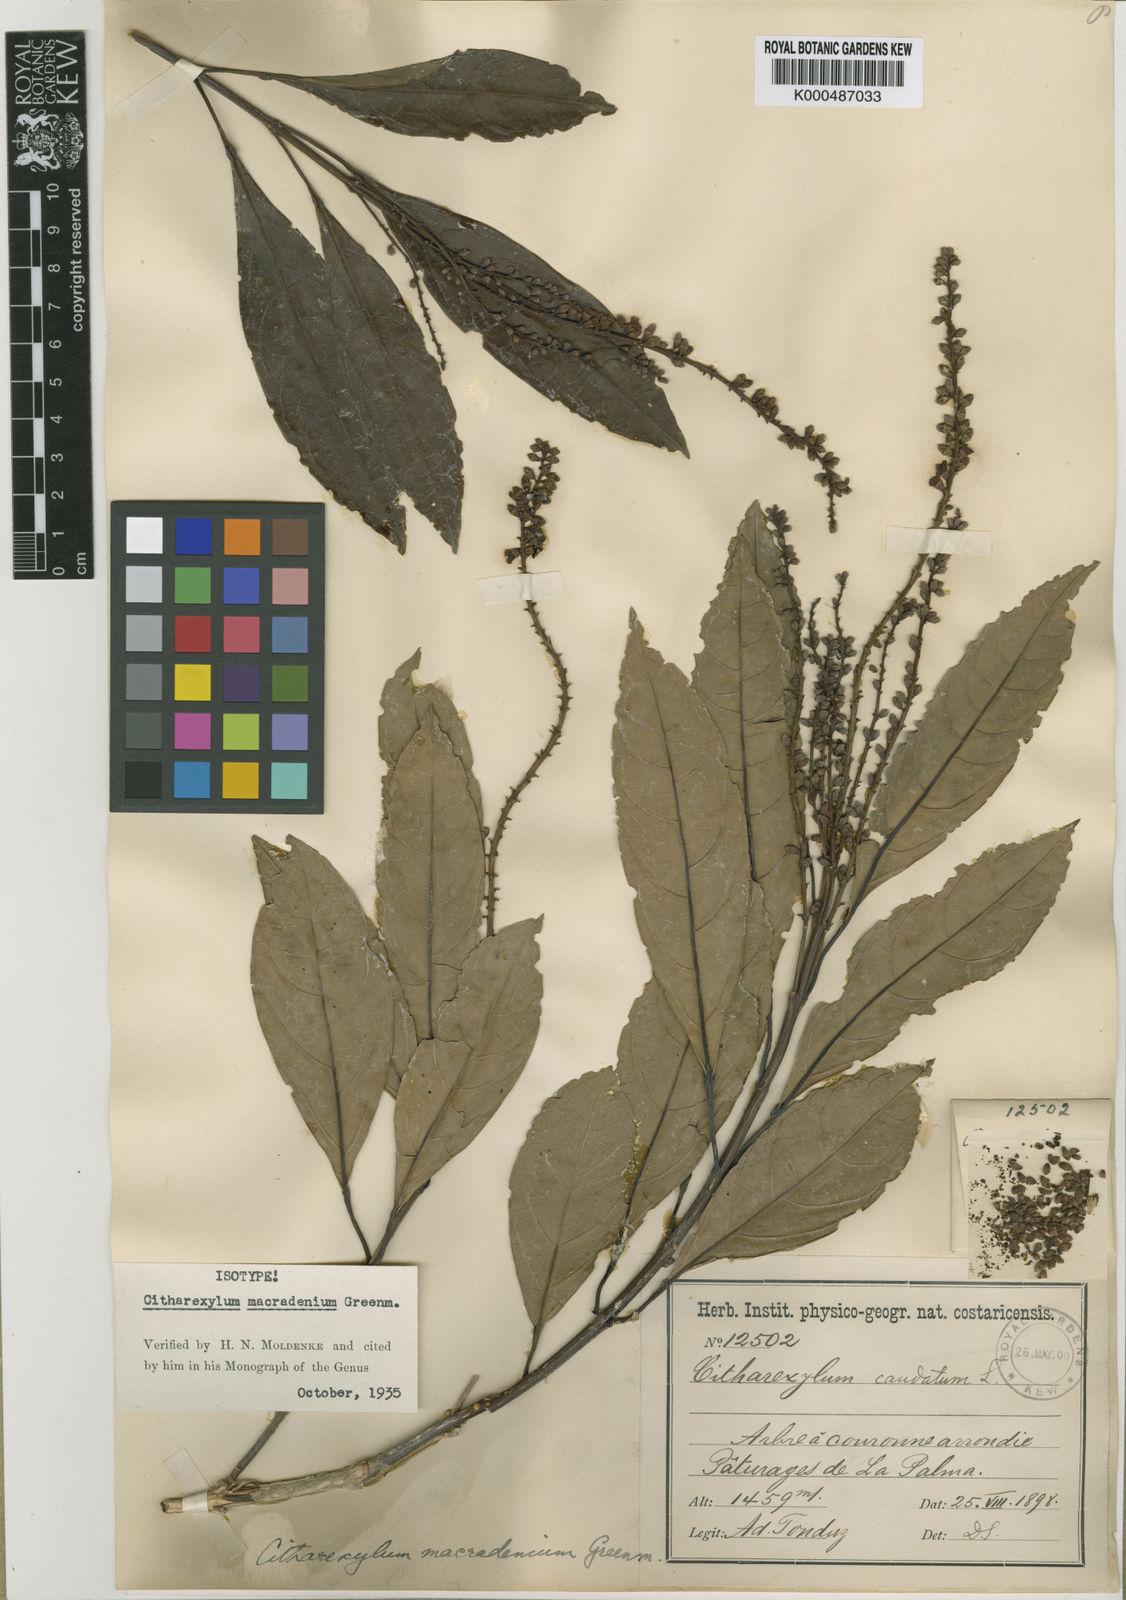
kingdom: Plantae
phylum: Tracheophyta
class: Magnoliopsida
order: Lamiales
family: Verbenaceae
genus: Citharexylum
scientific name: Citharexylum macradenium
